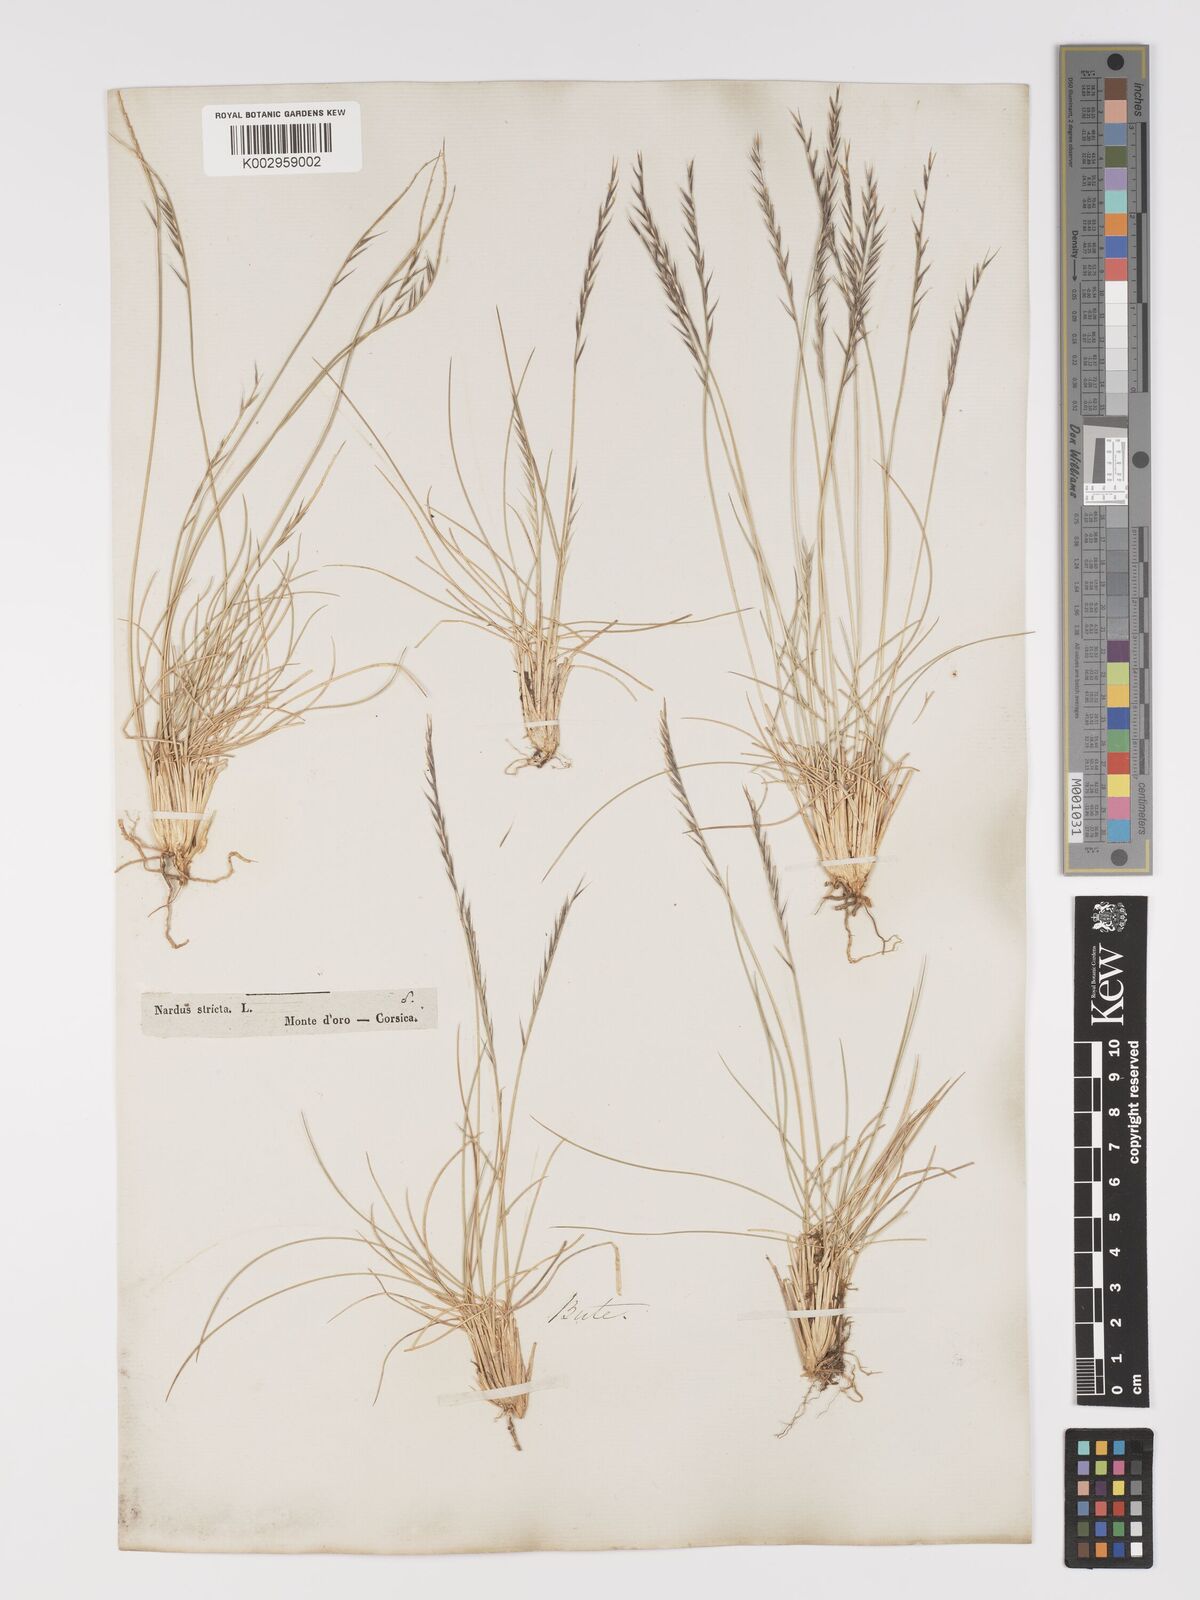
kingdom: Plantae
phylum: Tracheophyta
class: Liliopsida
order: Poales
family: Poaceae
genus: Nardus
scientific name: Nardus stricta
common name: Mat-grass
